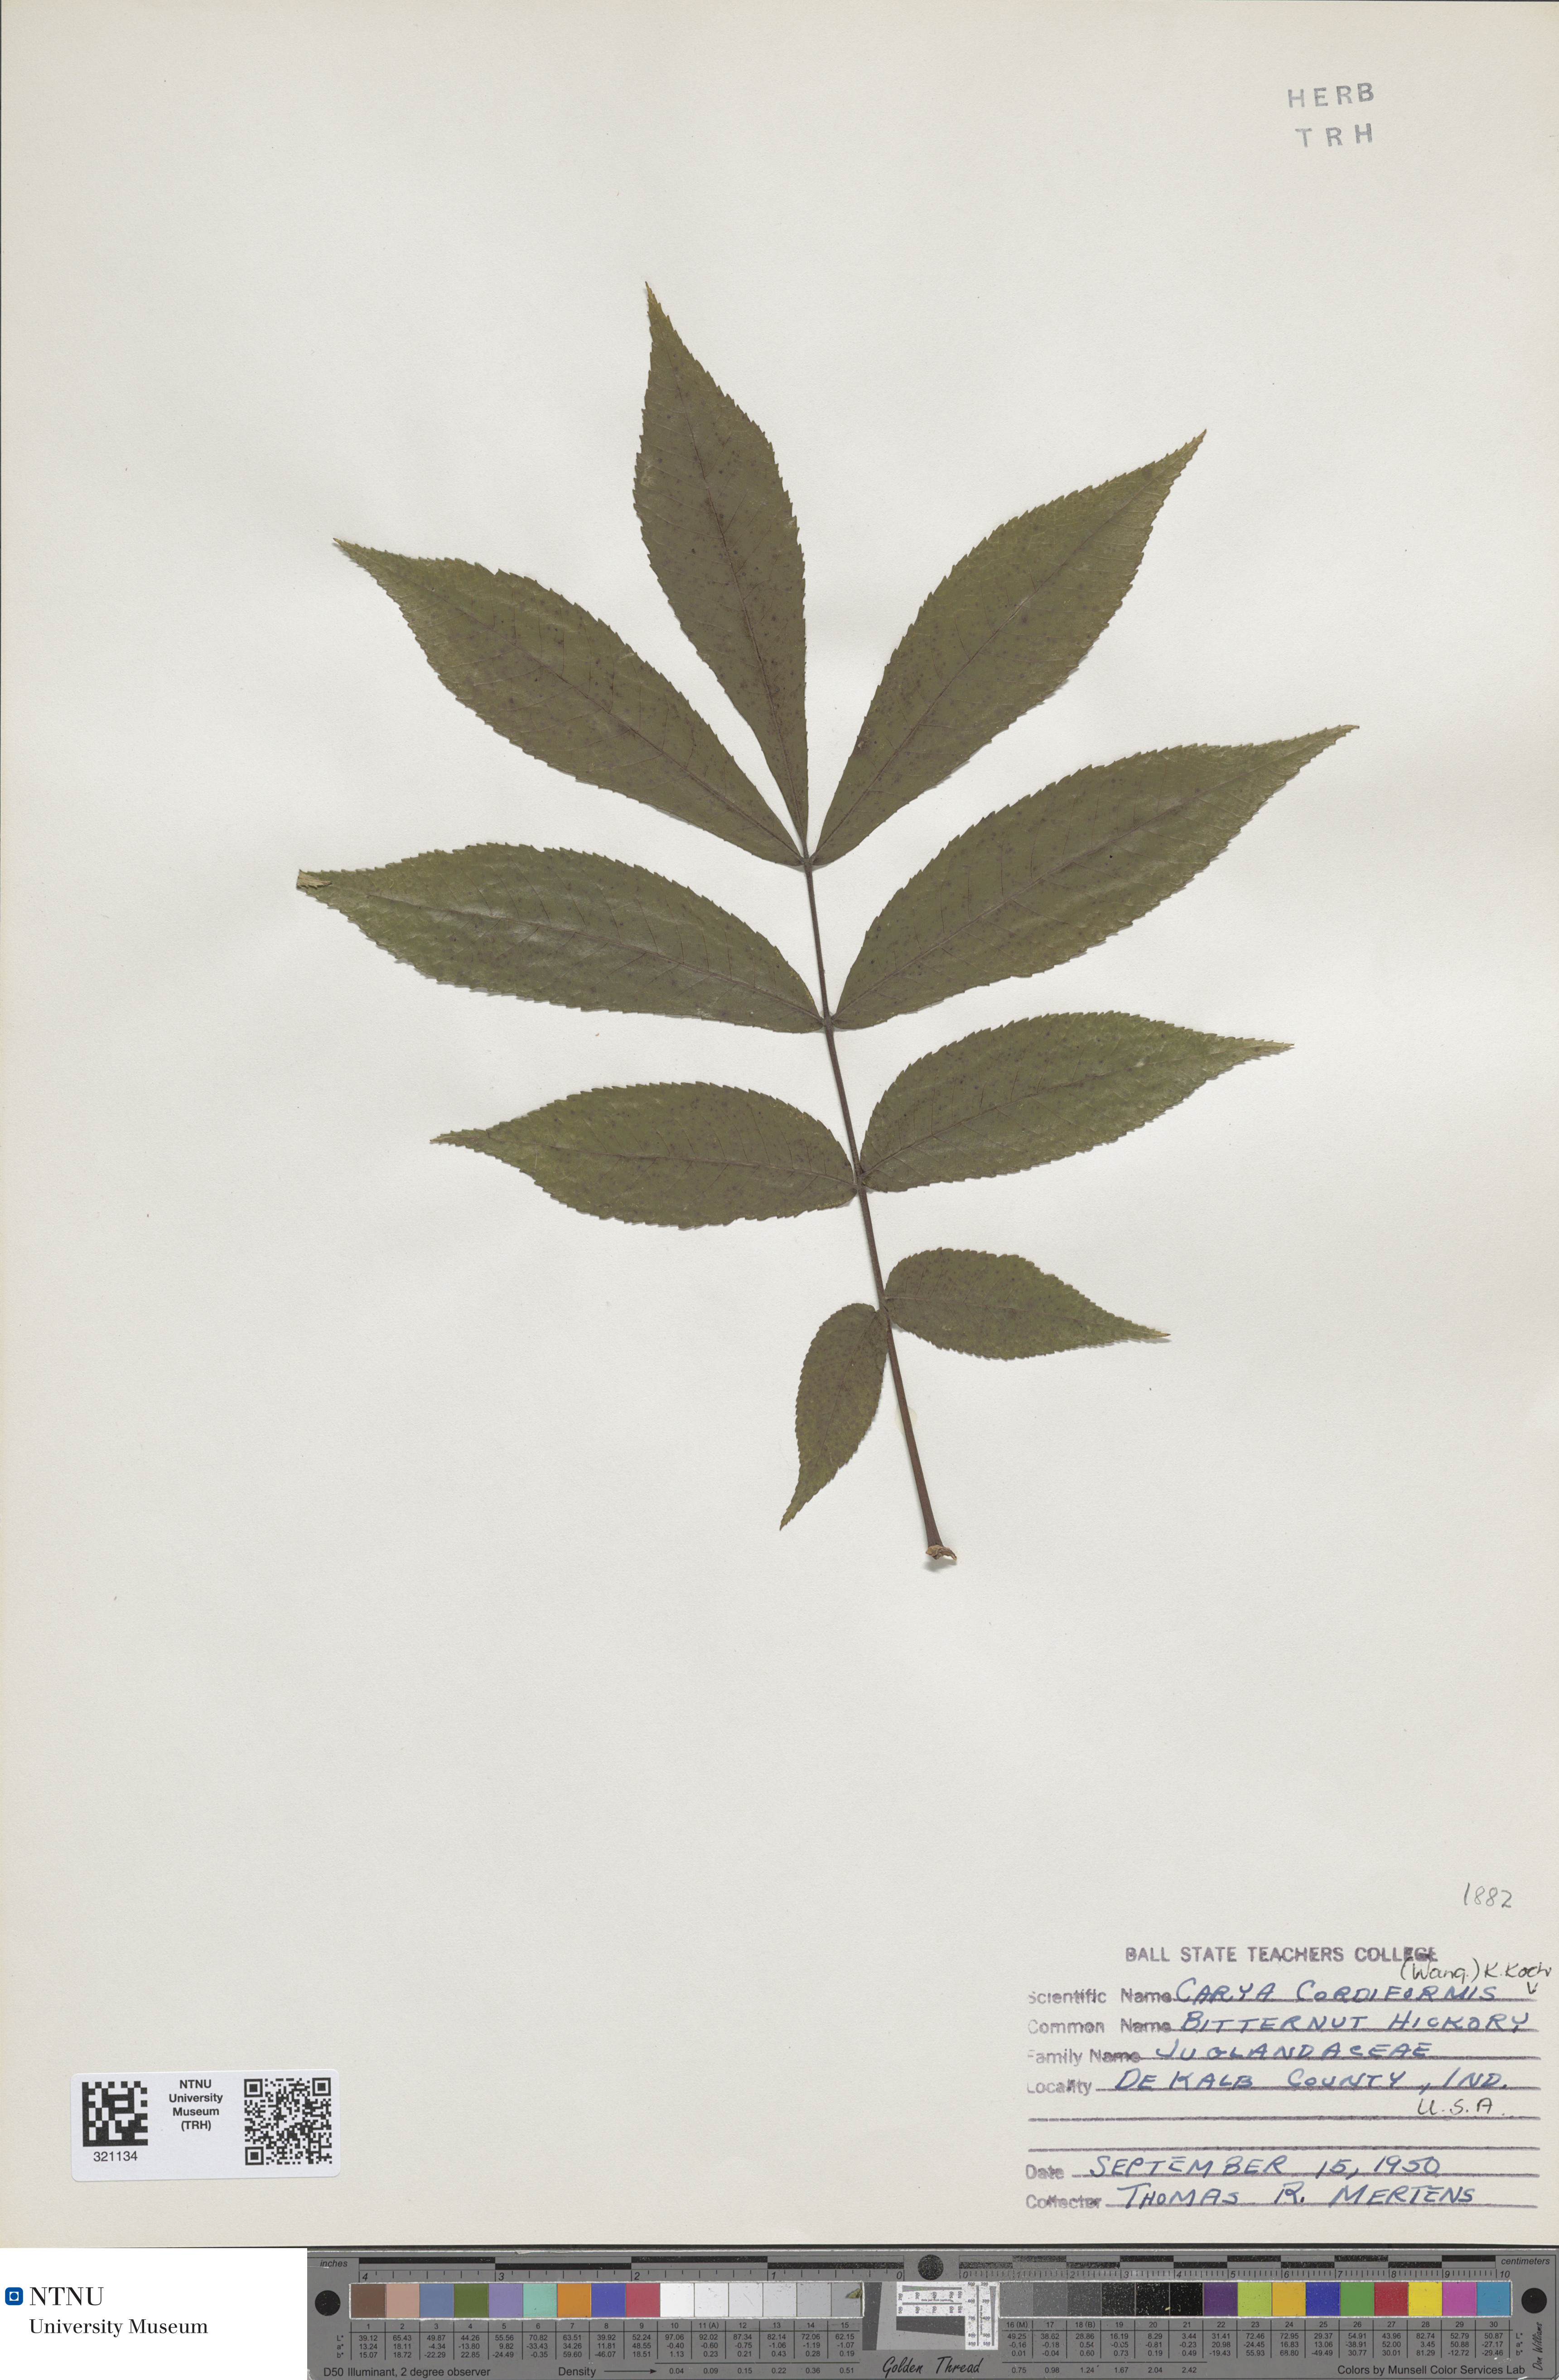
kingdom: Plantae
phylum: Tracheophyta
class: Magnoliopsida
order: Fagales
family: Juglandaceae
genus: Carya
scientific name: Carya cordiformis
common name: Bitternut hickory
